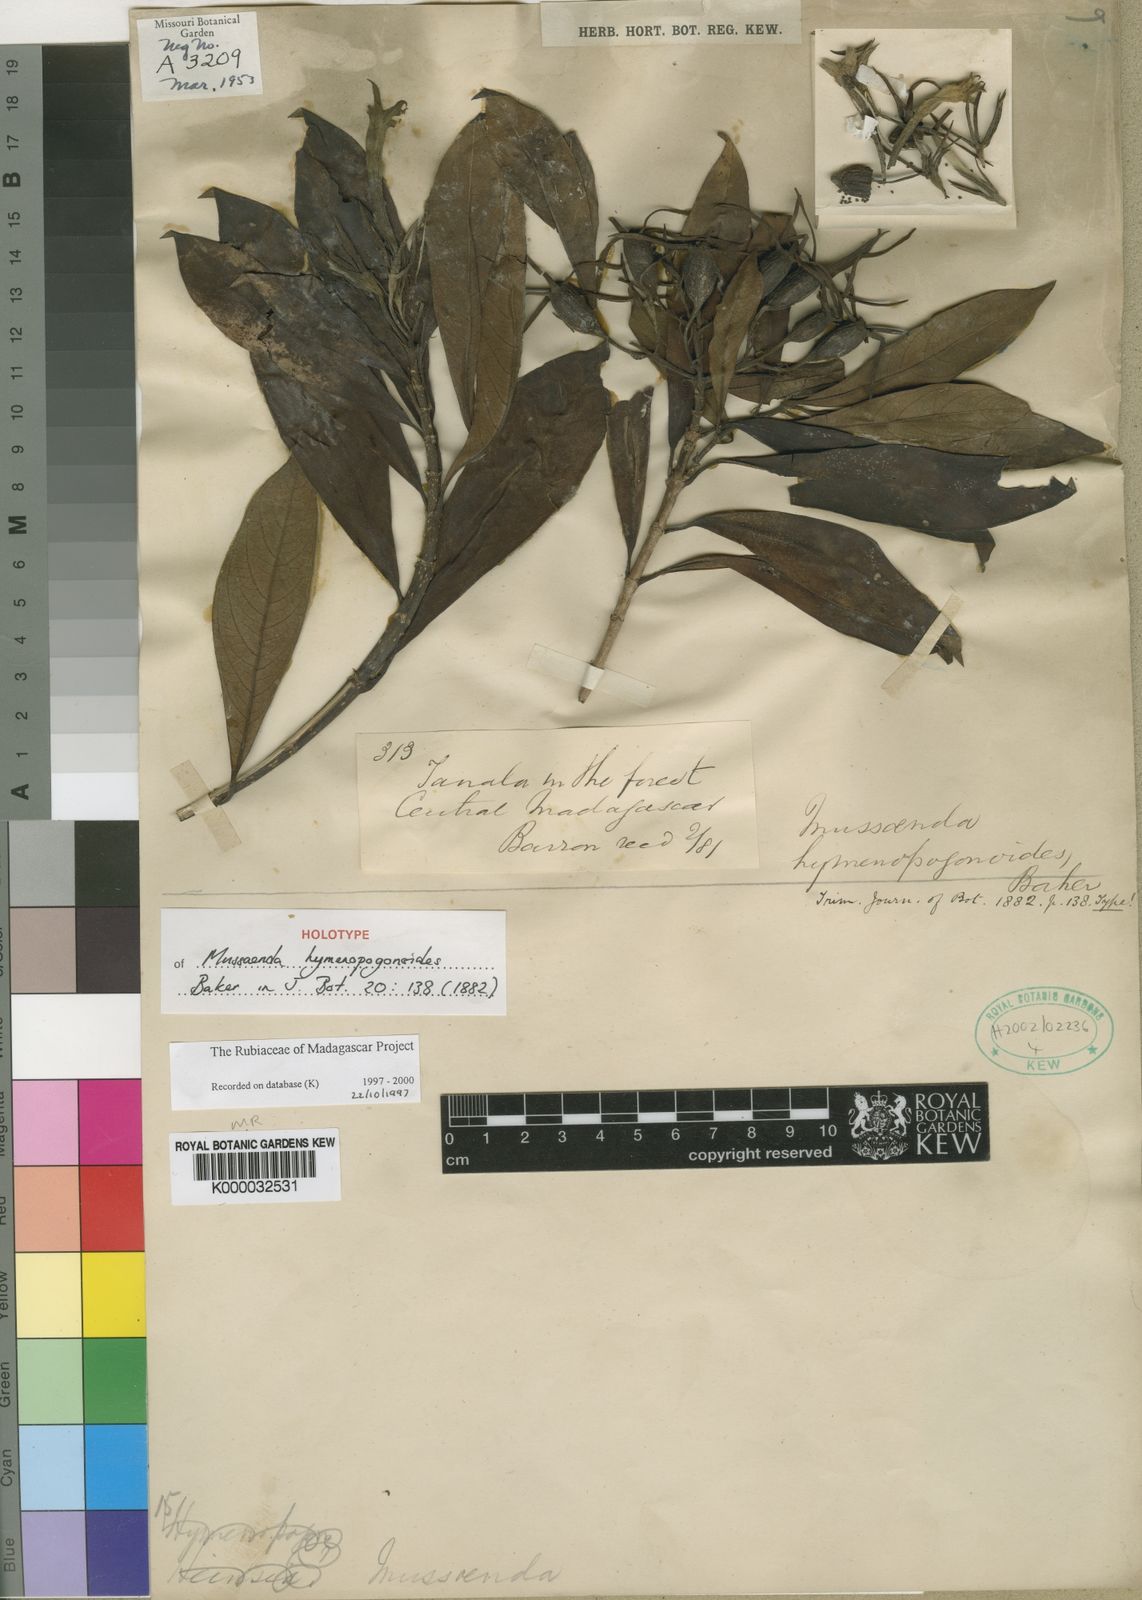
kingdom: Plantae
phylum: Tracheophyta
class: Magnoliopsida
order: Gentianales
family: Rubiaceae
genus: Bremeria
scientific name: Bremeria hymenopogonoides
